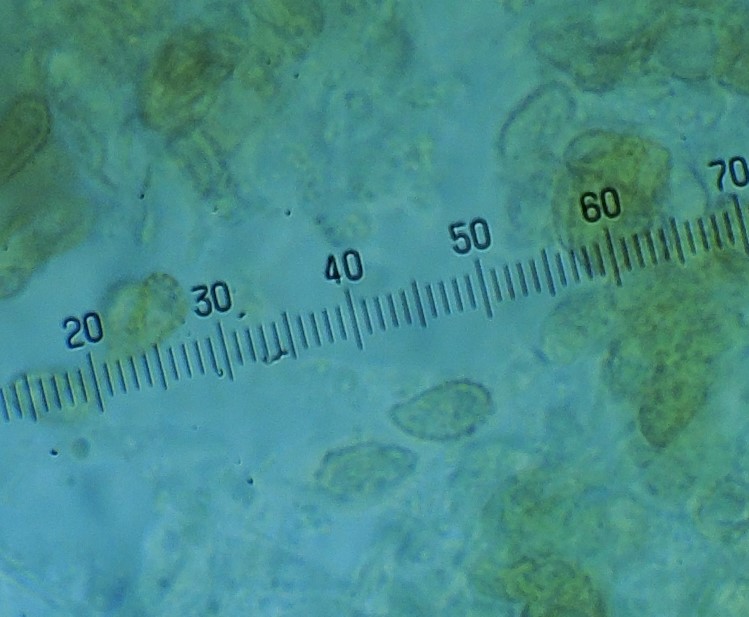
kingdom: Fungi
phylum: Basidiomycota
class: Agaricomycetes
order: Gomphales
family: Gomphaceae
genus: Phaeoclavulina
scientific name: Phaeoclavulina abietina
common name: gulgrøn koralsvamp
